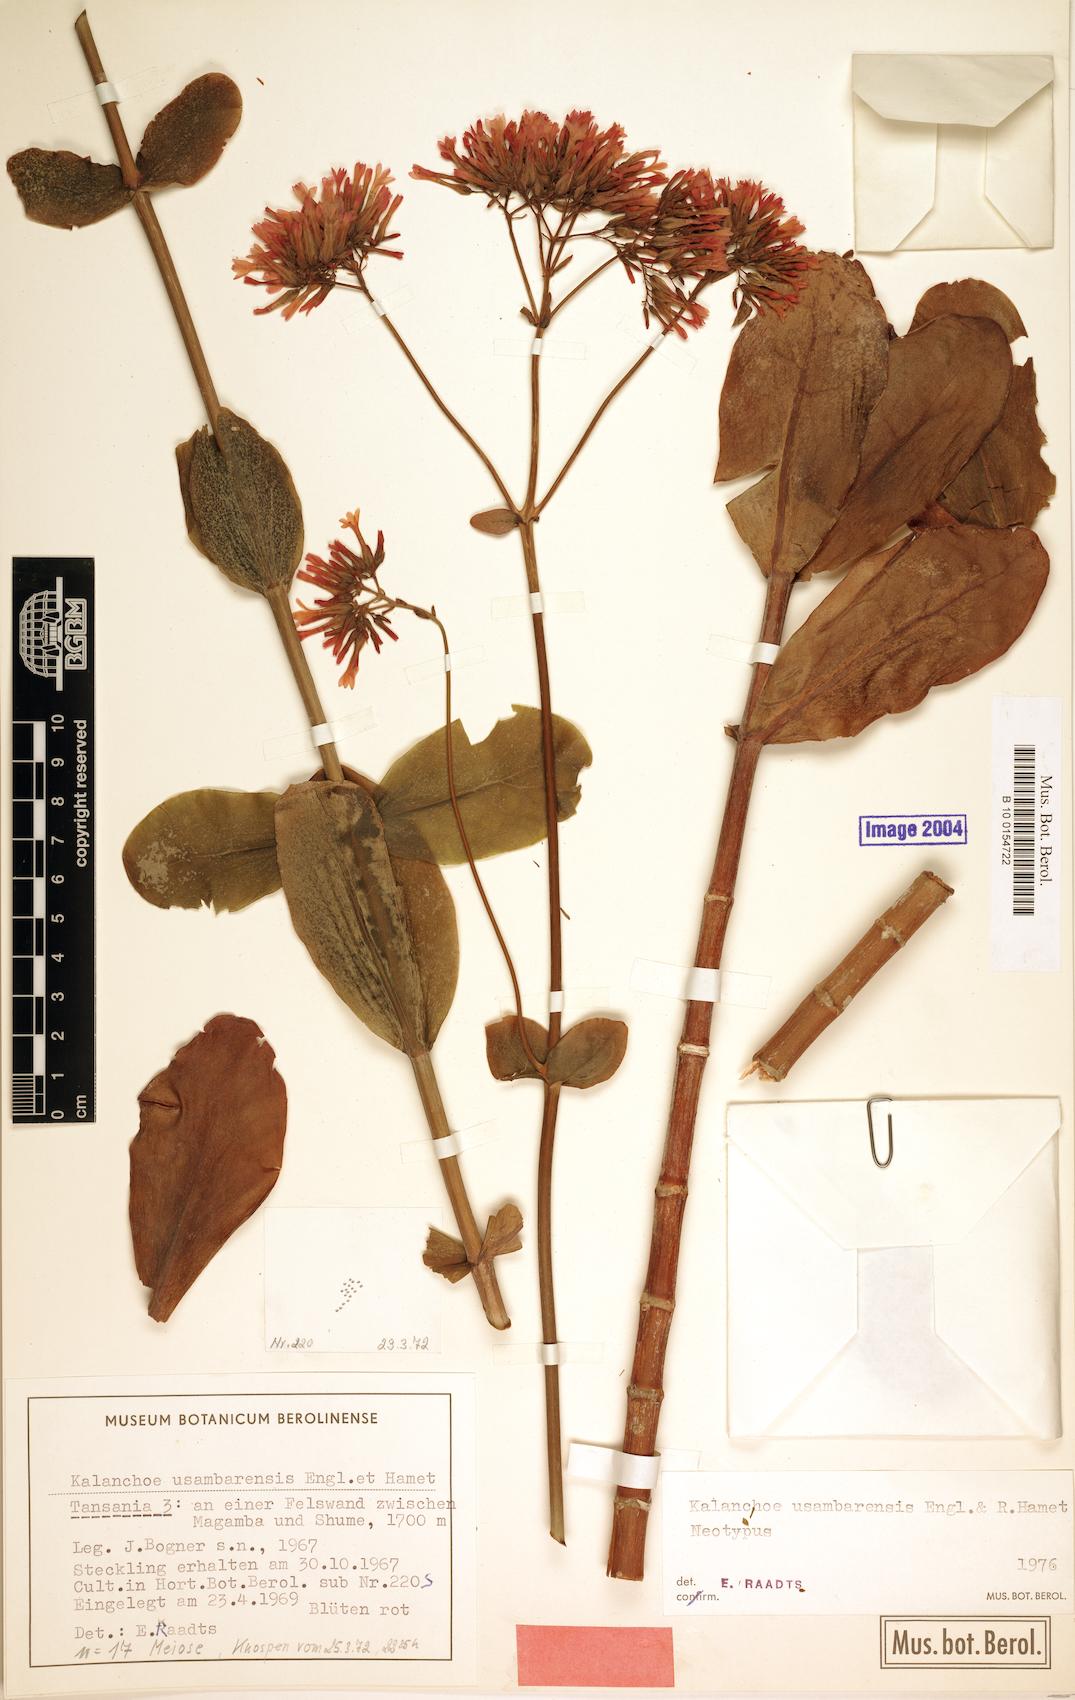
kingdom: Plantae
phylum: Tracheophyta
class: Magnoliopsida
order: Saxifragales
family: Crassulaceae
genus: Kalanchoe
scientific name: Kalanchoe usambarensis
